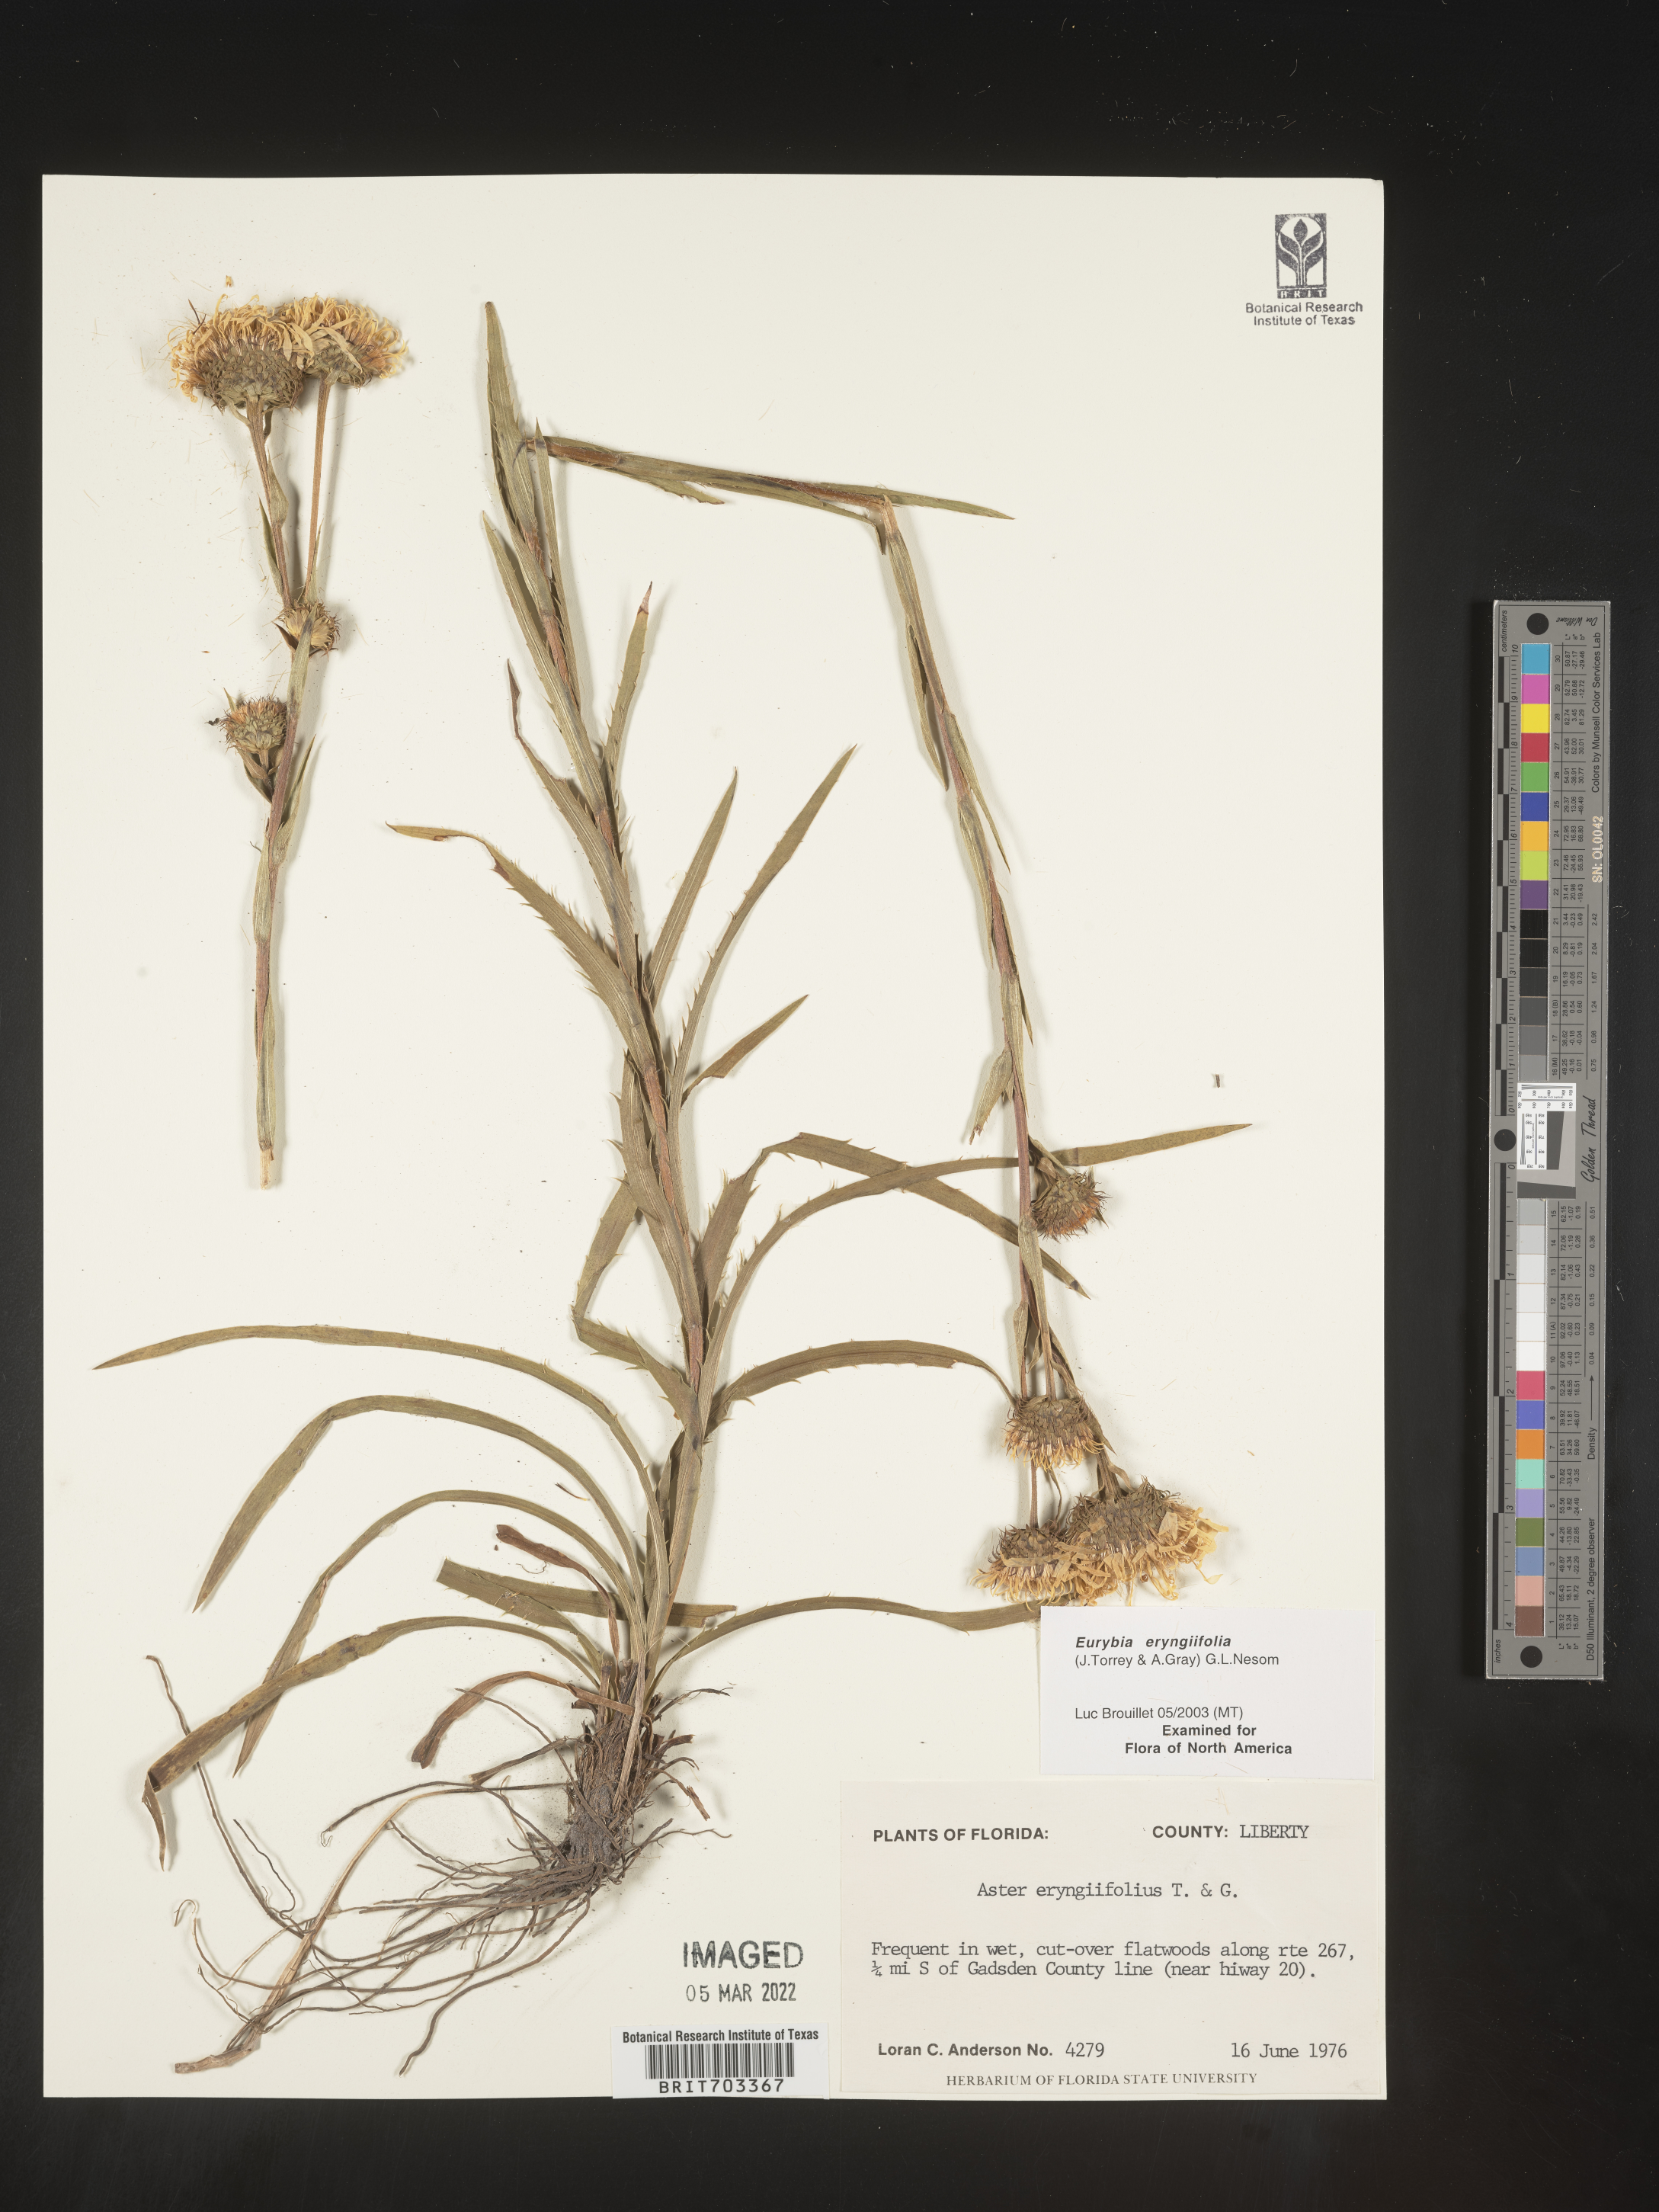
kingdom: Plantae
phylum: Tracheophyta
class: Magnoliopsida
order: Asterales
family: Asteraceae
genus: Eurybia
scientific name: Eurybia eryngiifolia
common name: Thistle-leaf aster
